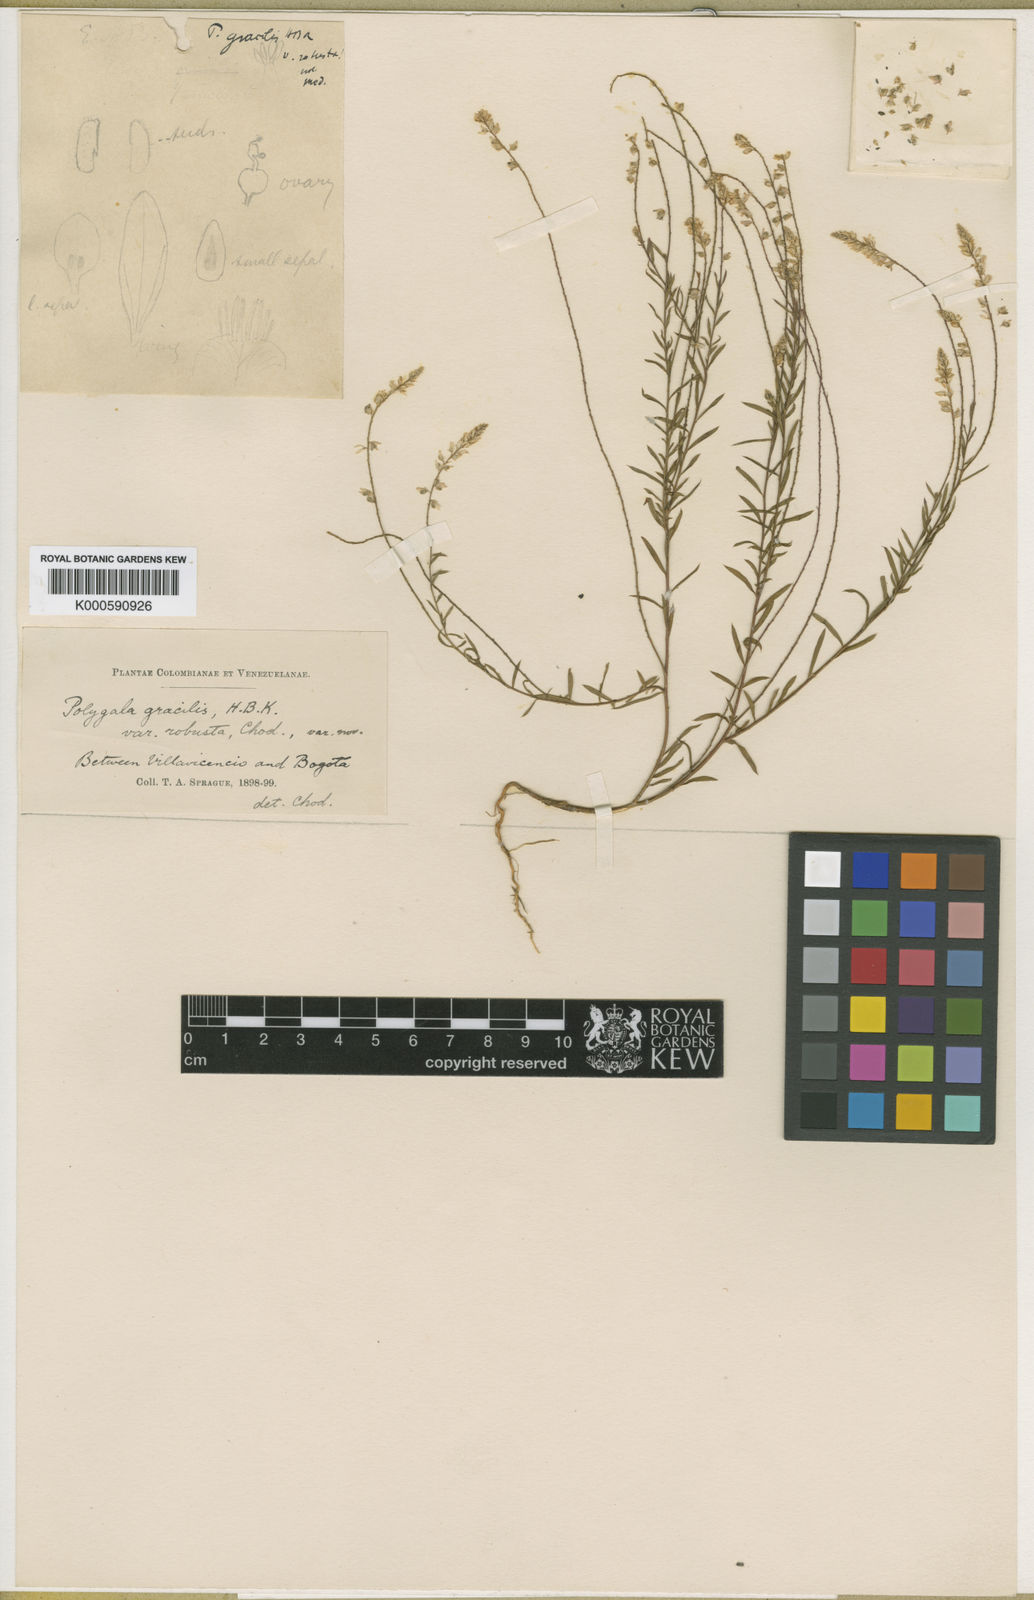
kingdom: Plantae
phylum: Tracheophyta
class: Magnoliopsida
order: Fabales
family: Polygalaceae
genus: Polygala
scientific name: Polygala gracilis
